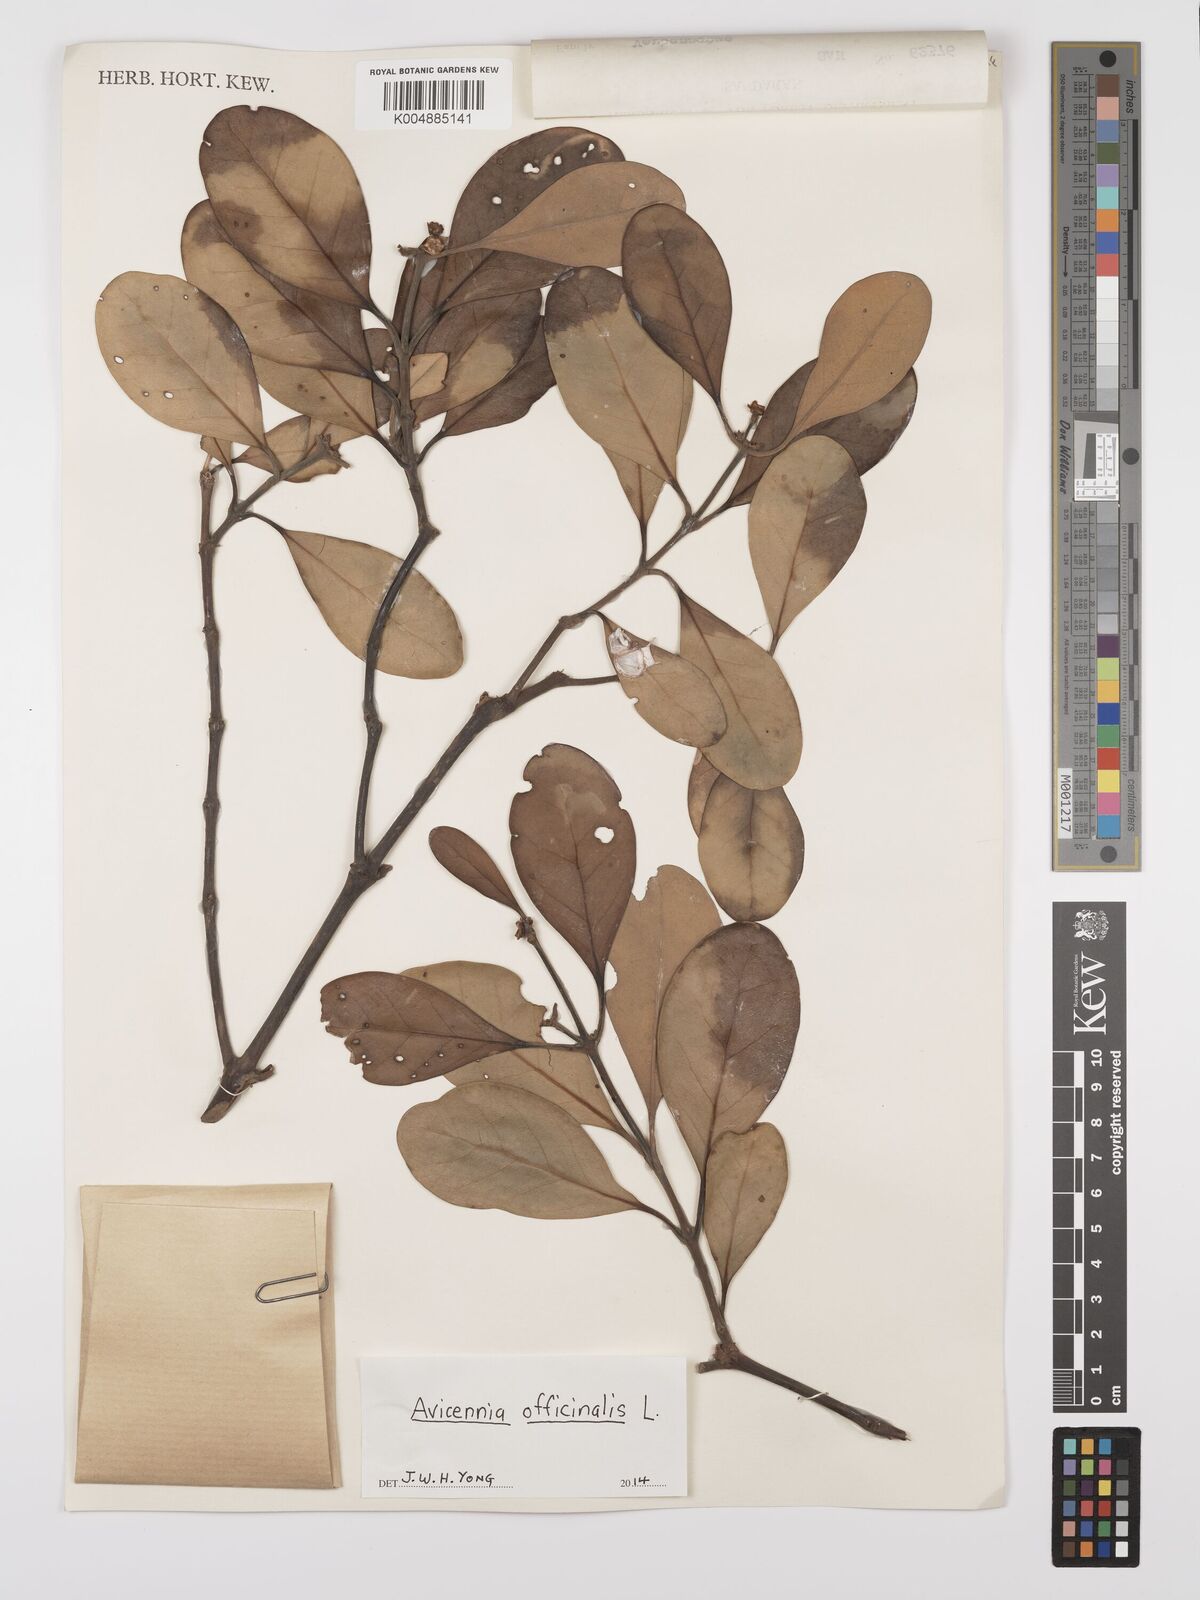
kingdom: Plantae
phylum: Tracheophyta
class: Magnoliopsida
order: Lamiales
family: Acanthaceae
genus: Avicennia
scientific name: Avicennia officinalis
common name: Baen
